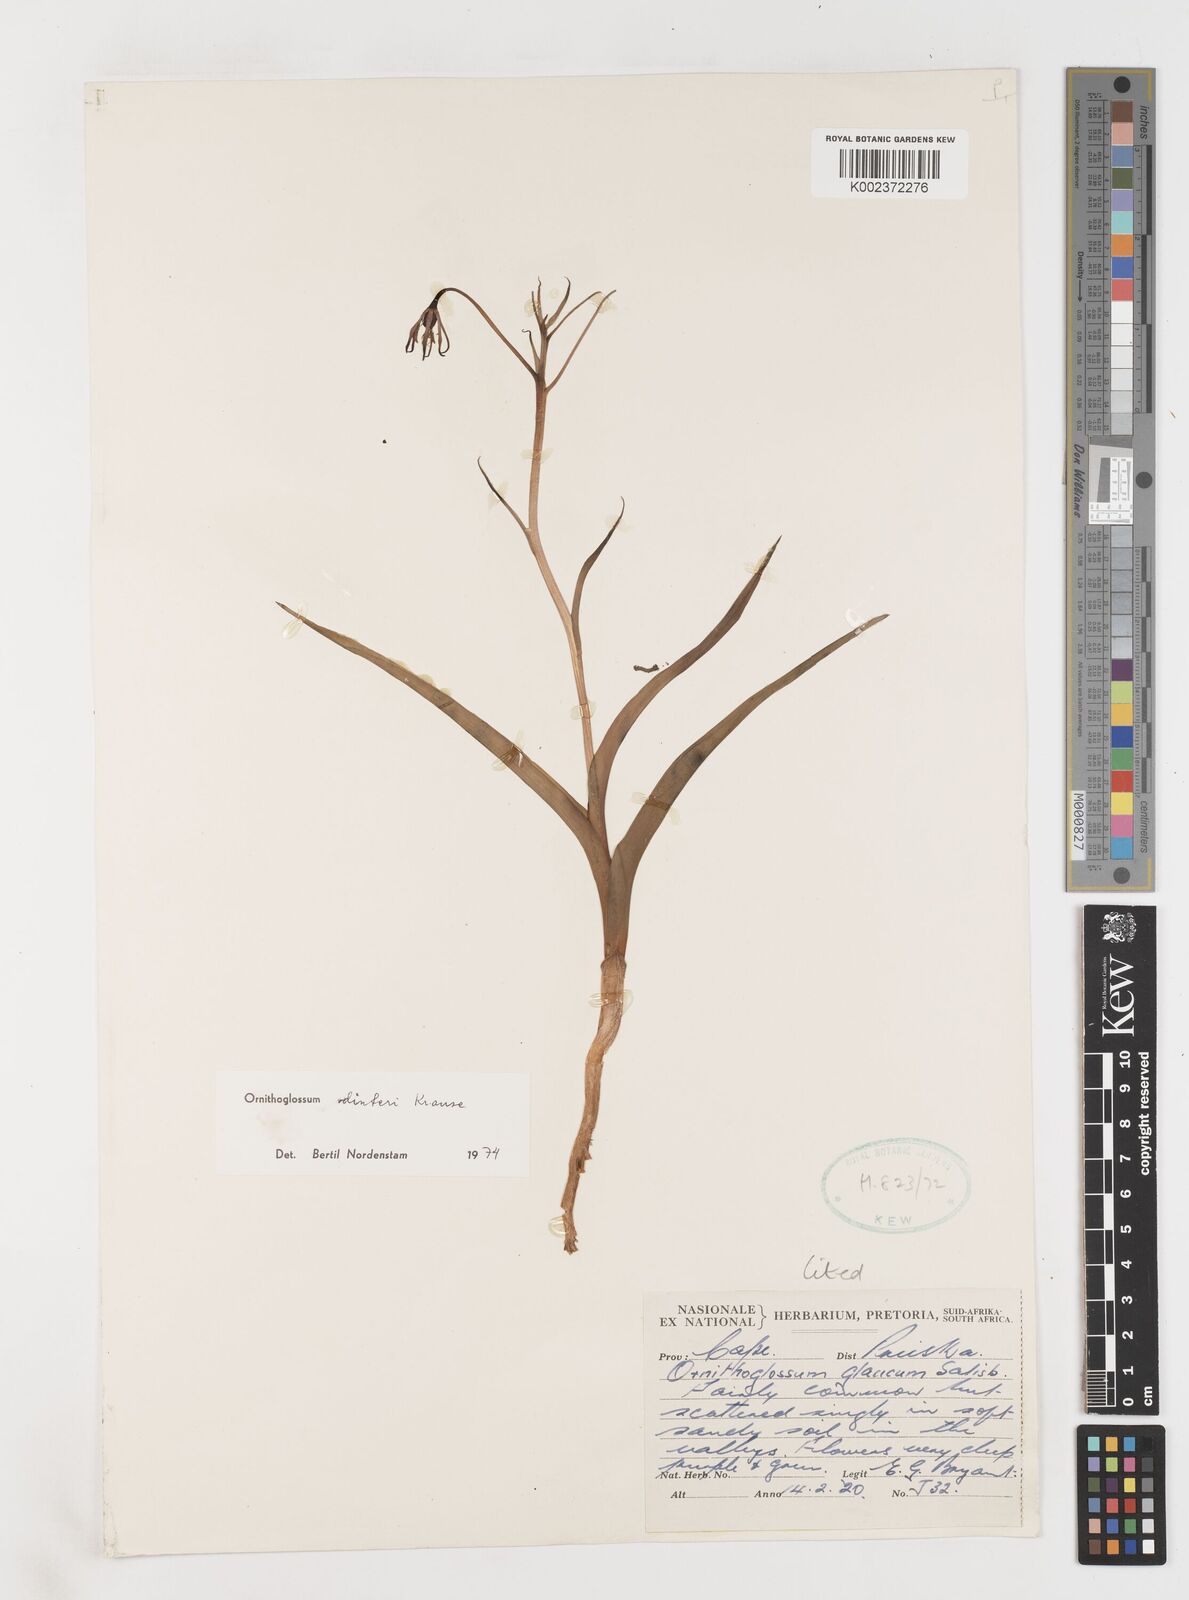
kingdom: Plantae
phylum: Tracheophyta
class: Liliopsida
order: Liliales
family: Colchicaceae
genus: Ornithoglossum
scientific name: Ornithoglossum dinteri
